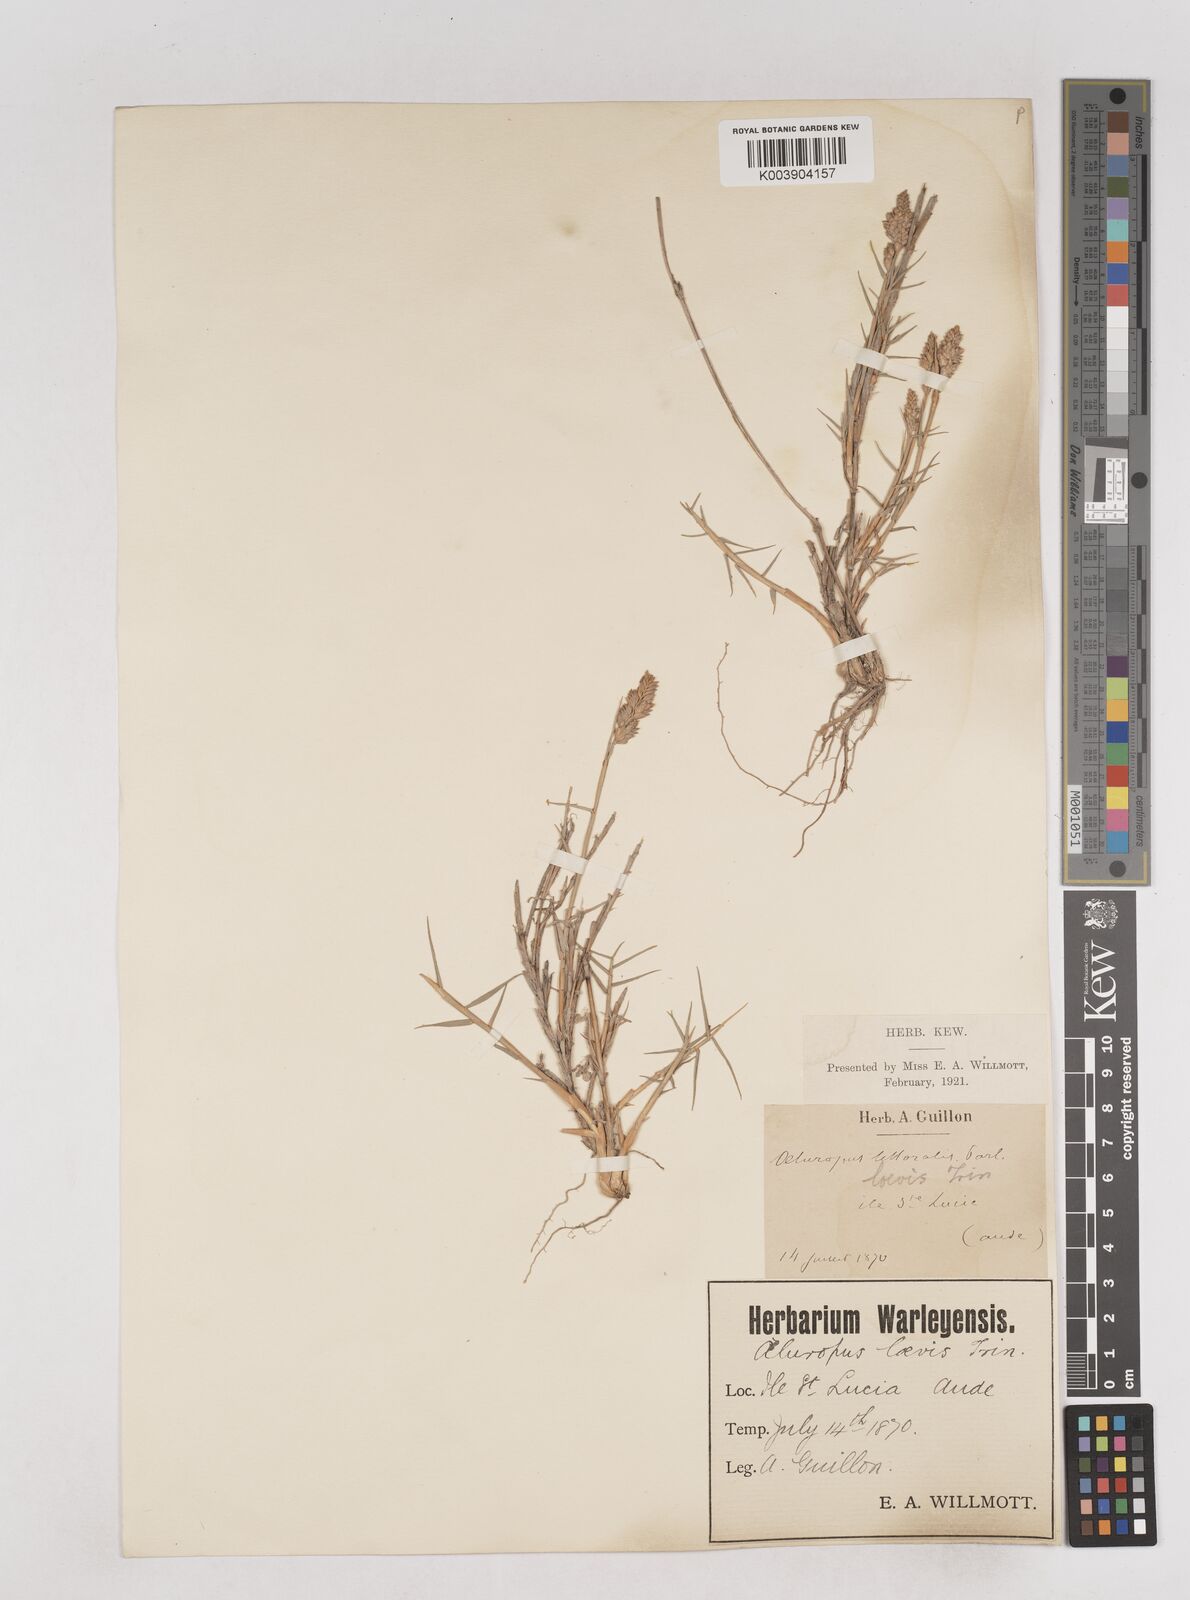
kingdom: Plantae
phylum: Tracheophyta
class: Liliopsida
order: Poales
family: Poaceae
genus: Aeluropus
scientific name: Aeluropus littoralis
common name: Indian walnut
